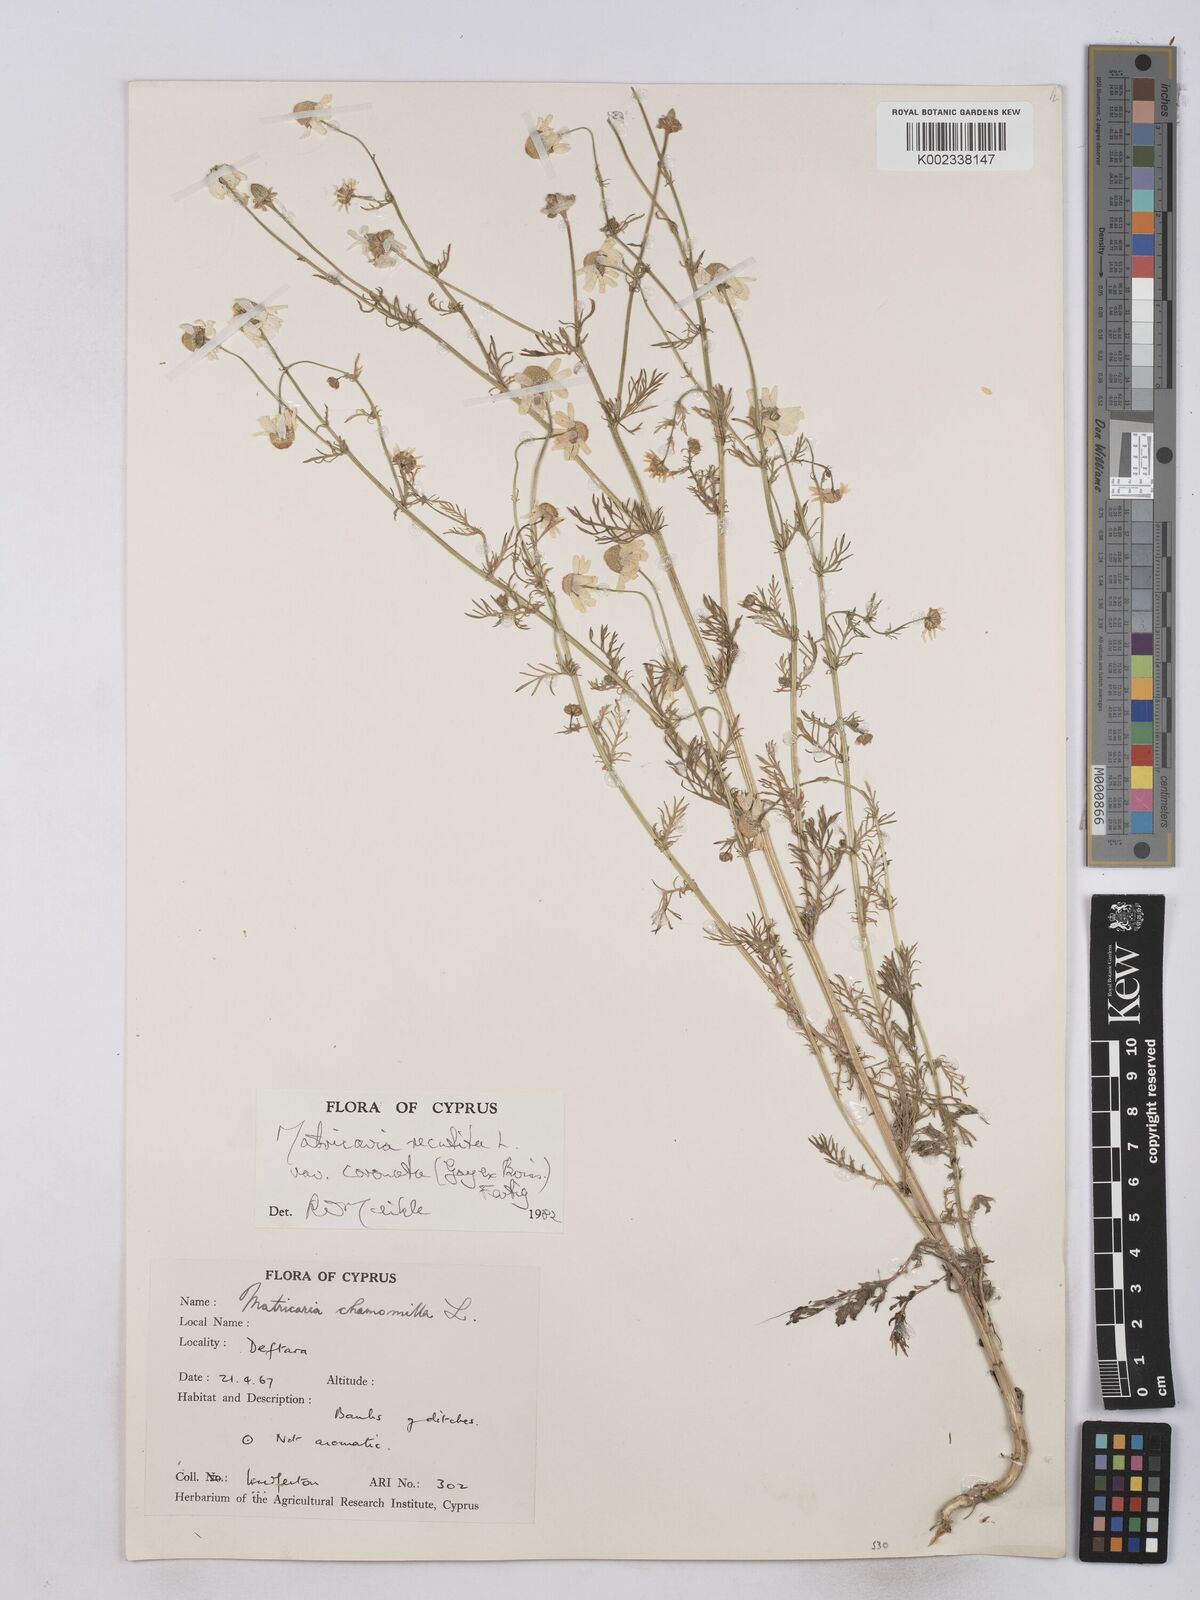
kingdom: Plantae
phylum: Tracheophyta
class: Magnoliopsida
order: Asterales
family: Asteraceae
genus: Matricaria
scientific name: Matricaria chamomilla
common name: Scented mayweed
